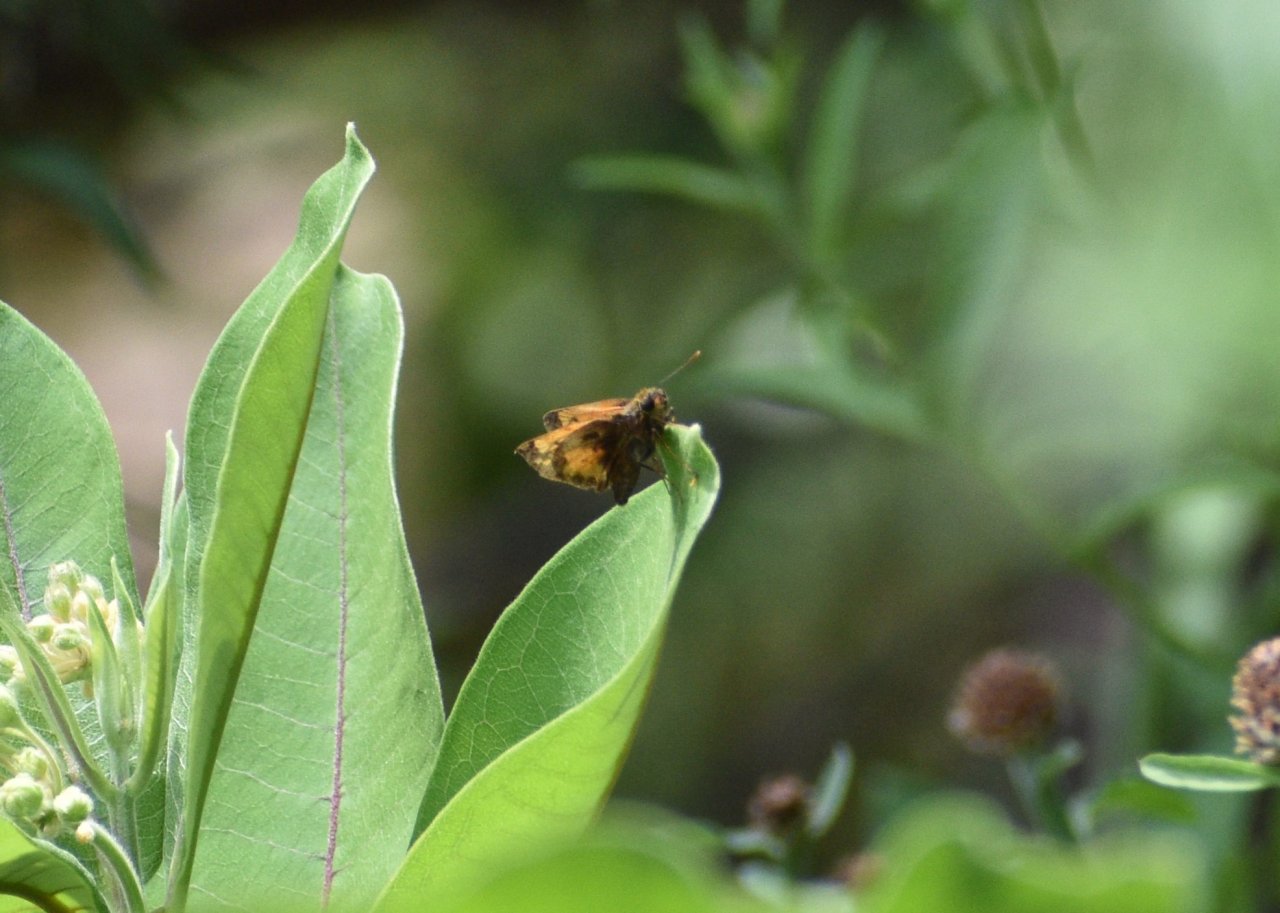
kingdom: Animalia
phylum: Arthropoda
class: Insecta
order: Lepidoptera
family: Hesperiidae
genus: Lon
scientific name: Lon hobomok
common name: Hobomok Skipper
